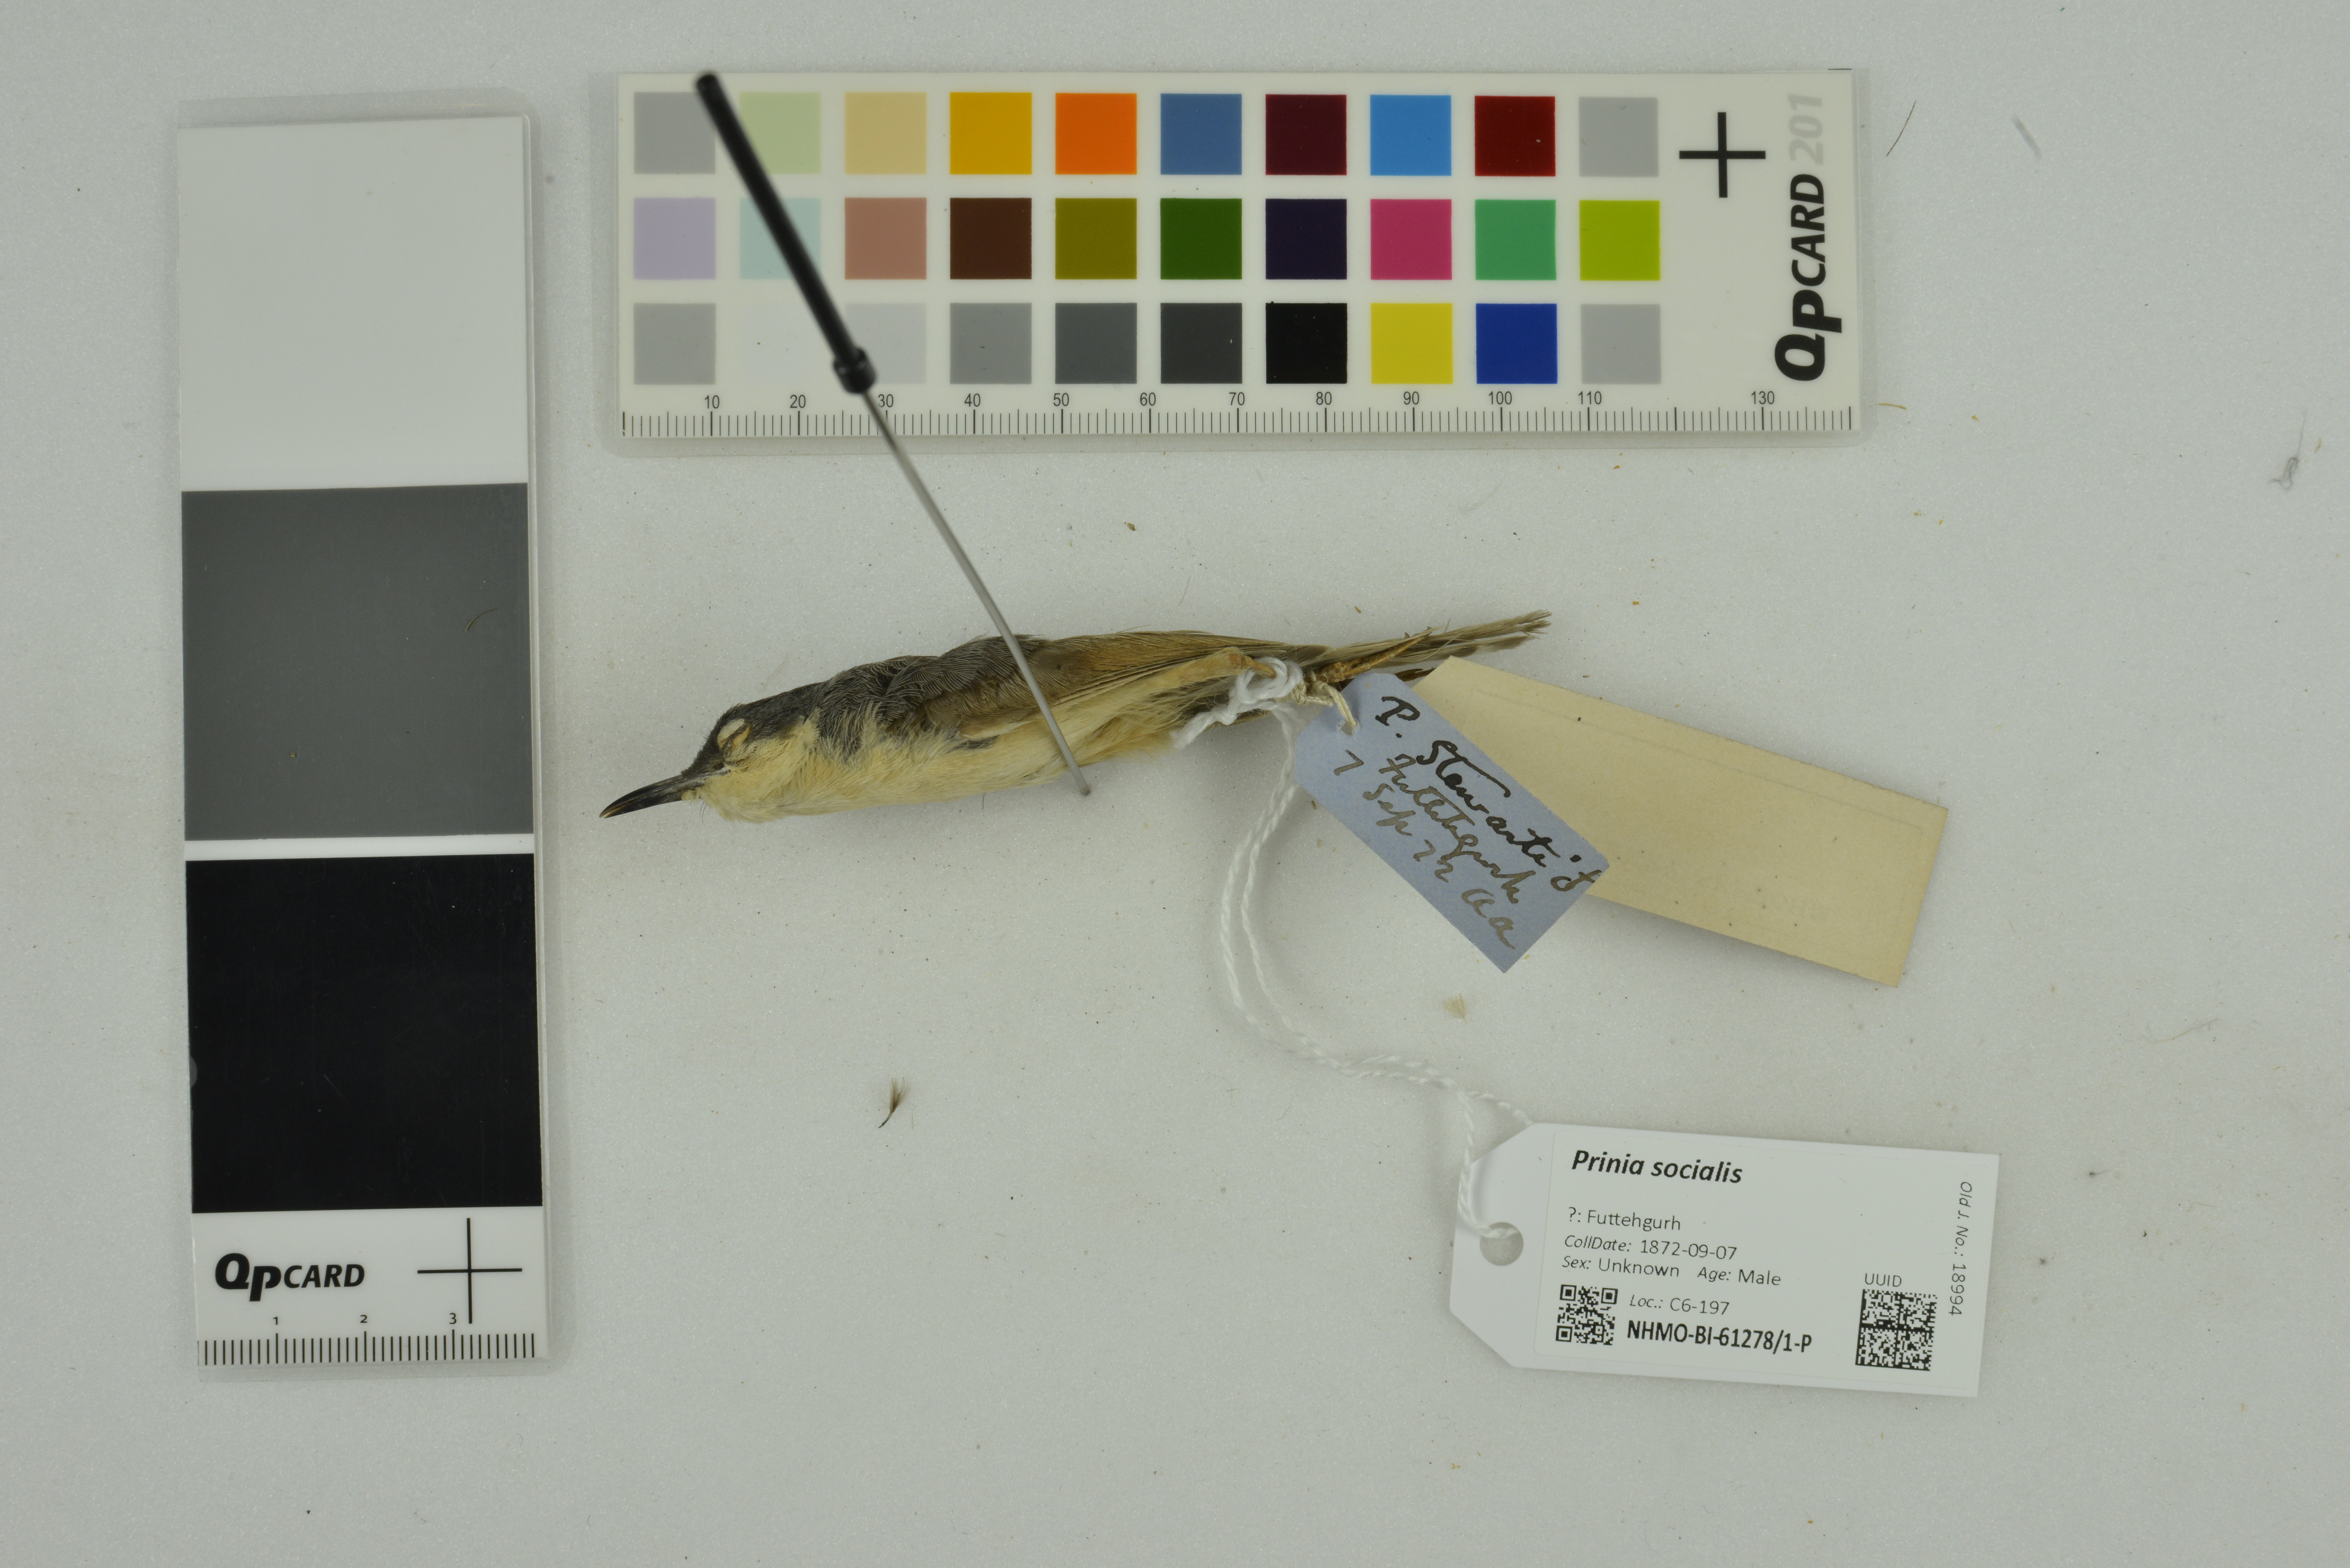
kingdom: Animalia
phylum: Chordata
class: Aves
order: Passeriformes
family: Cisticolidae
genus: Prinia
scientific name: Prinia socialis
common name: Ashy prinia
